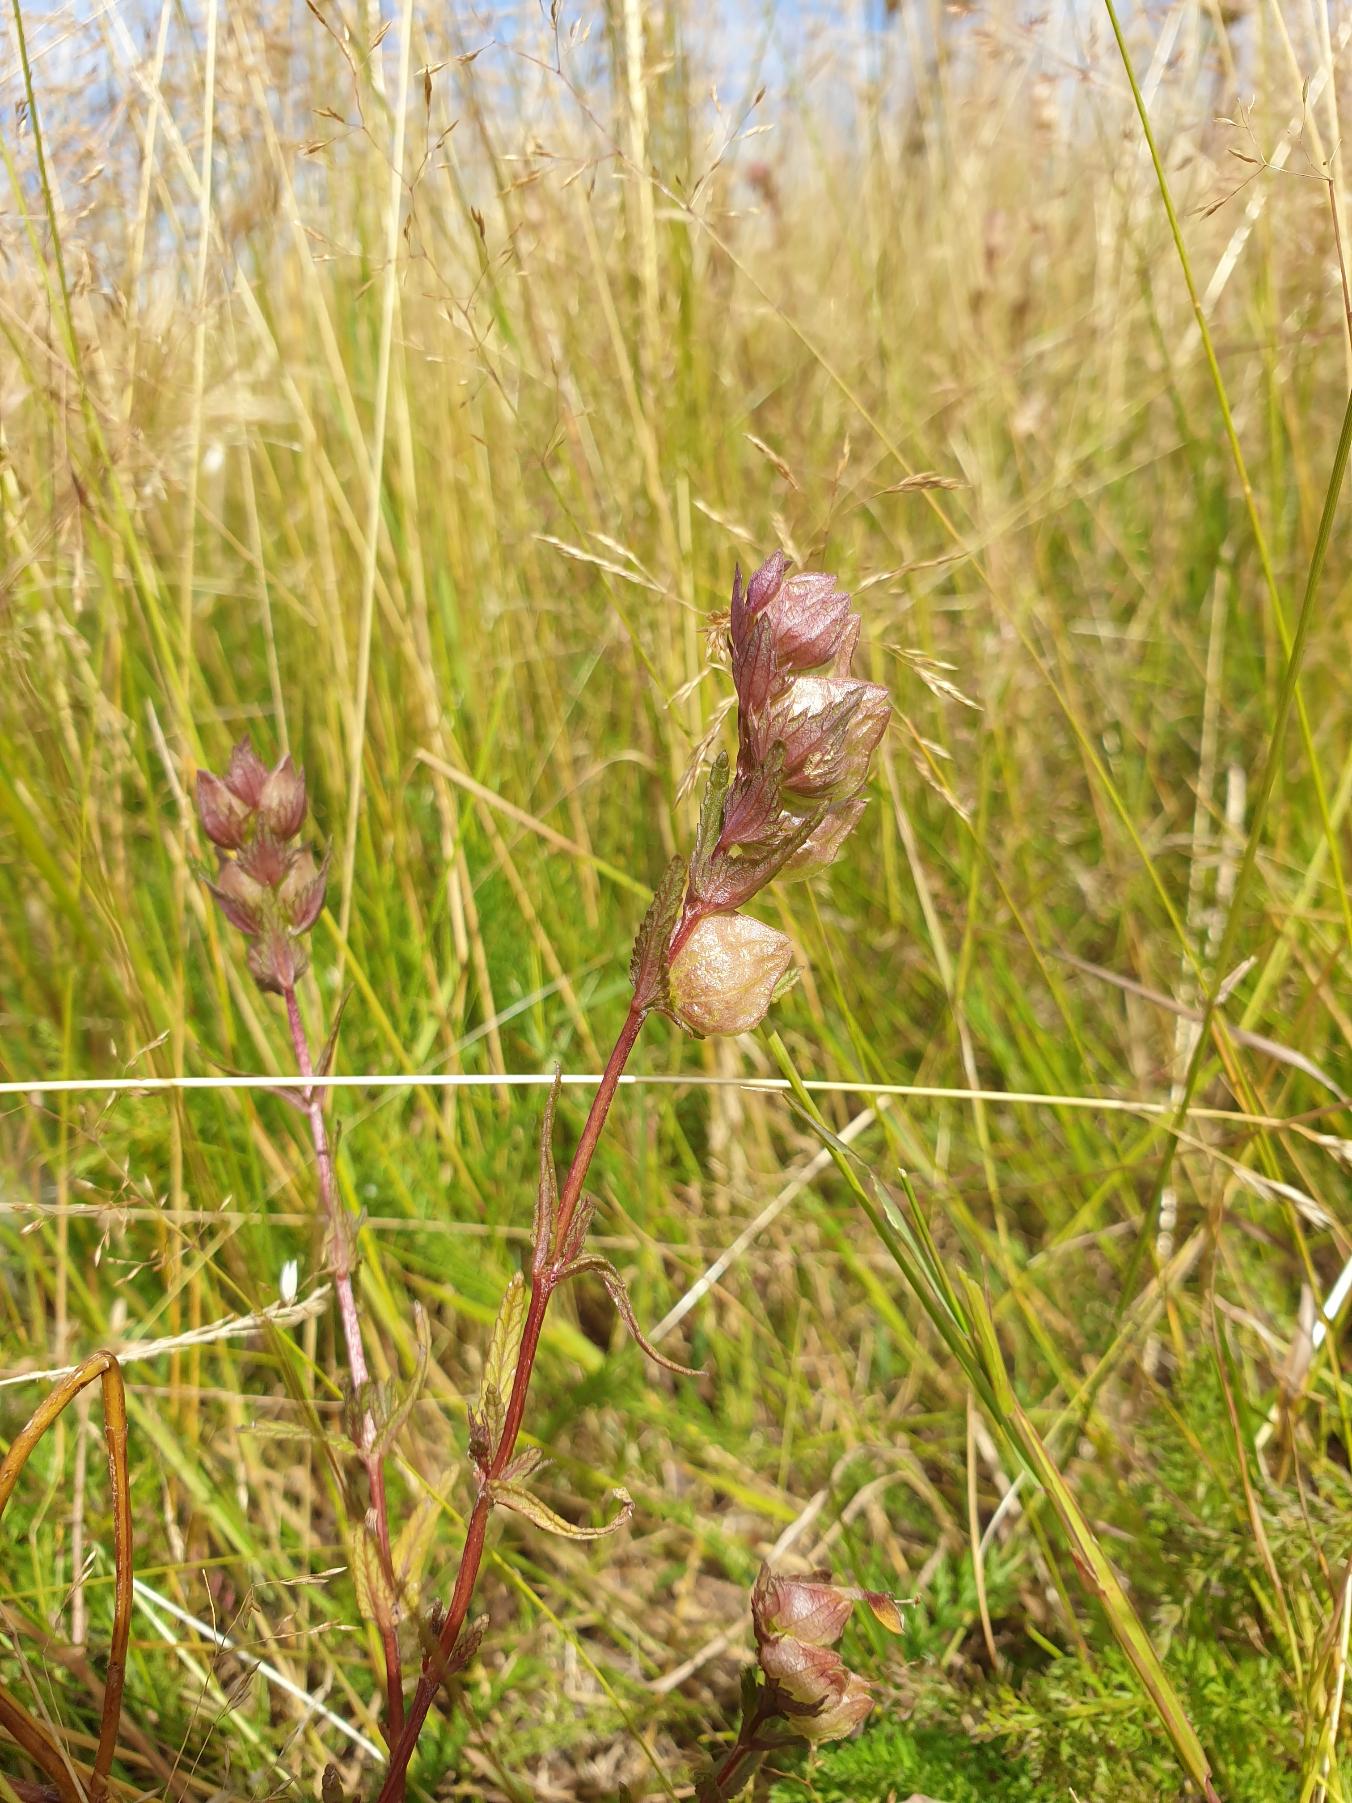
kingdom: Plantae
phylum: Tracheophyta
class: Magnoliopsida
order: Lamiales
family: Orobanchaceae
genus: Rhinanthus
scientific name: Rhinanthus
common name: Skjallerslægten
